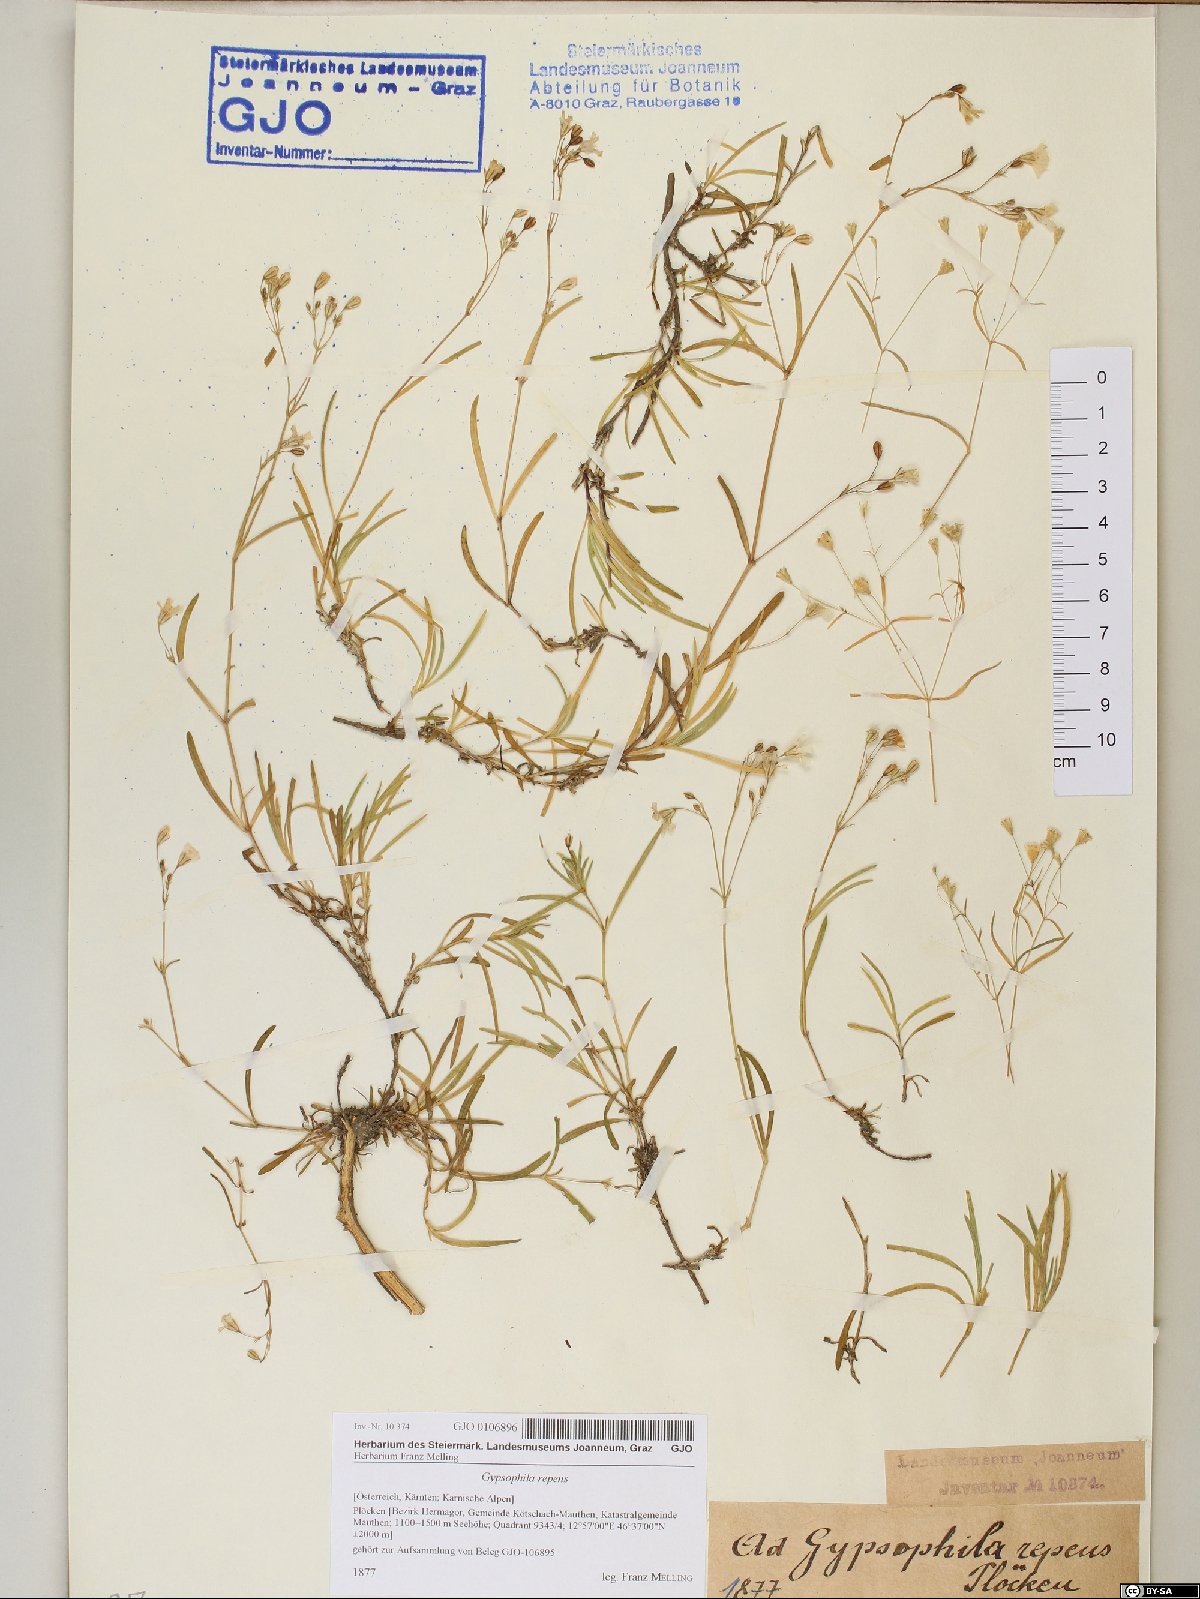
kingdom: Plantae
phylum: Tracheophyta
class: Magnoliopsida
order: Caryophyllales
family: Caryophyllaceae
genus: Gypsophila
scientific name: Gypsophila repens
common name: Creeping baby's-breath
